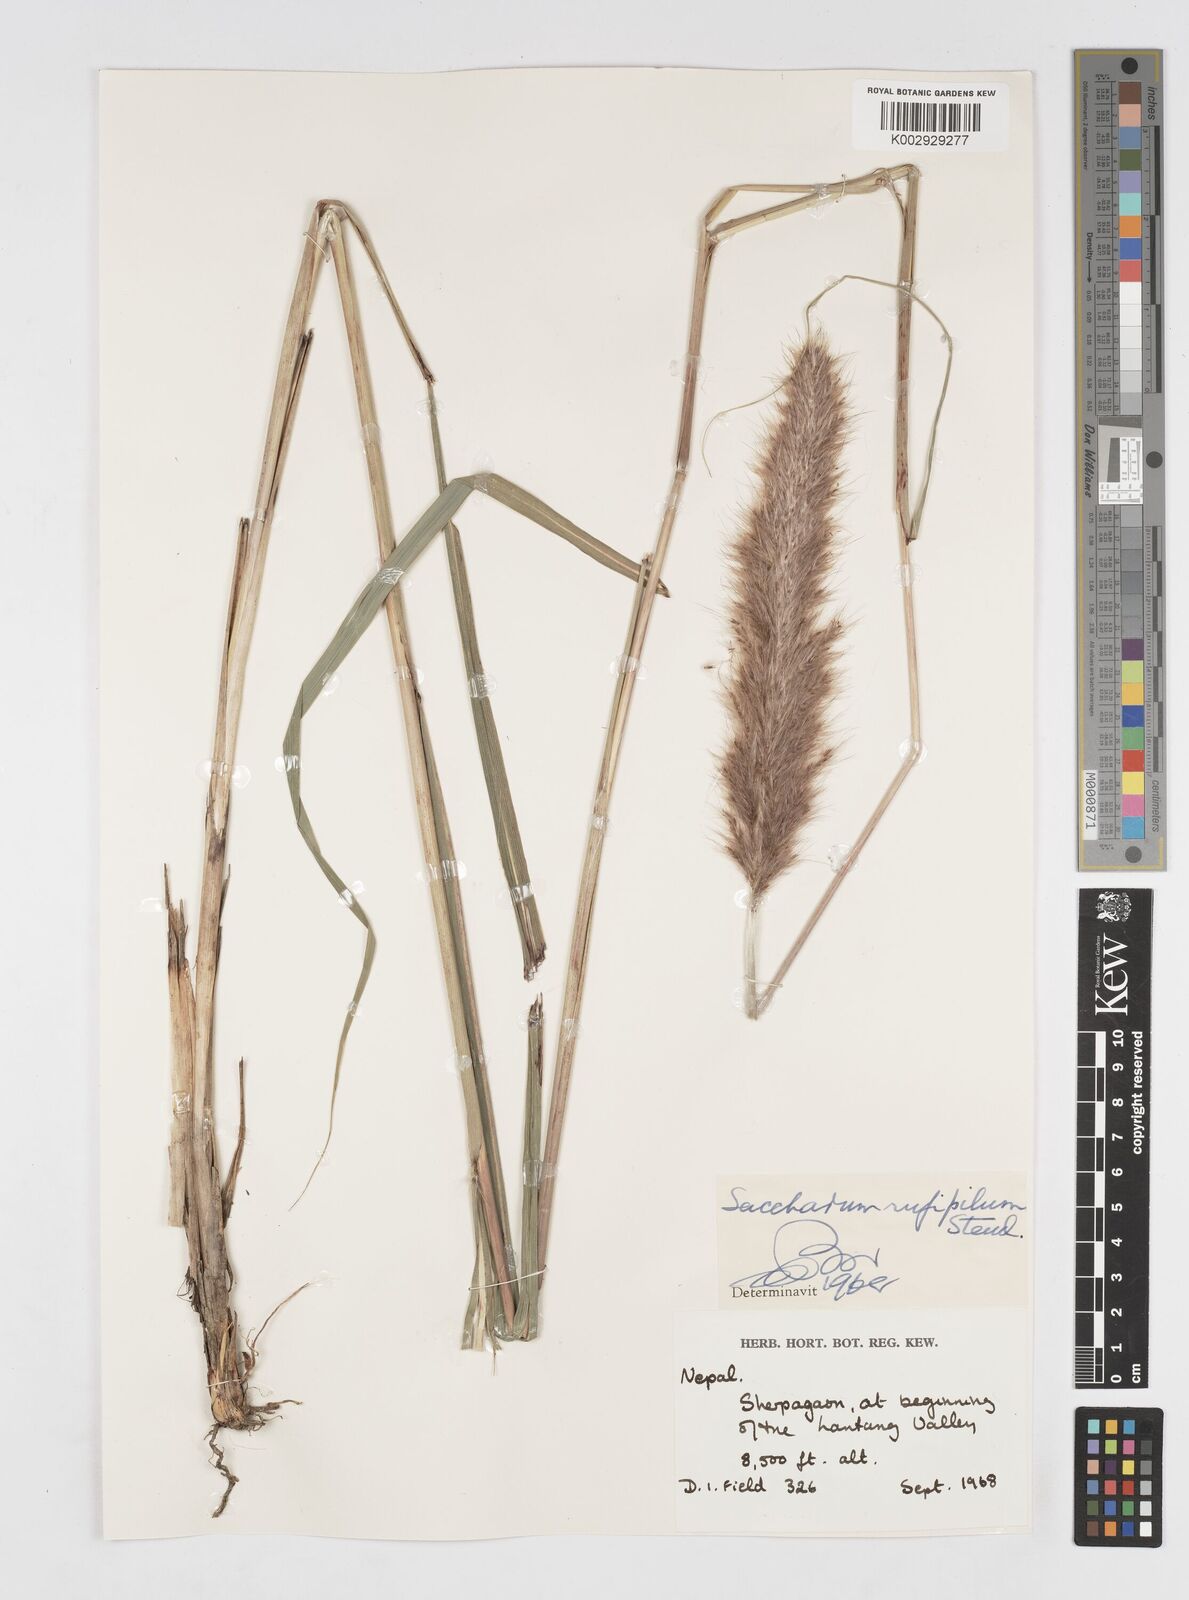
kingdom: Plantae
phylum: Tracheophyta
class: Liliopsida
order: Poales
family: Poaceae
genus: Tripidium
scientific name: Tripidium rufipilum
